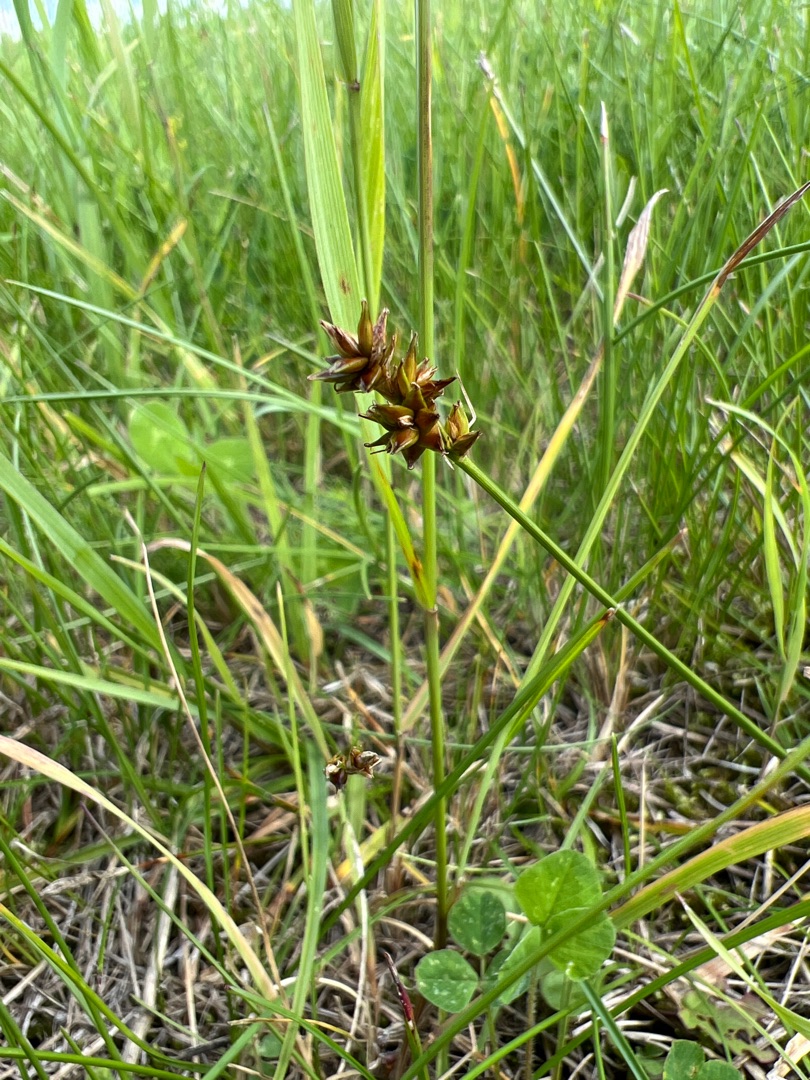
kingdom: Plantae
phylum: Tracheophyta
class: Liliopsida
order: Poales
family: Cyperaceae
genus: Carex
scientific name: Carex pairae
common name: Pigget star
